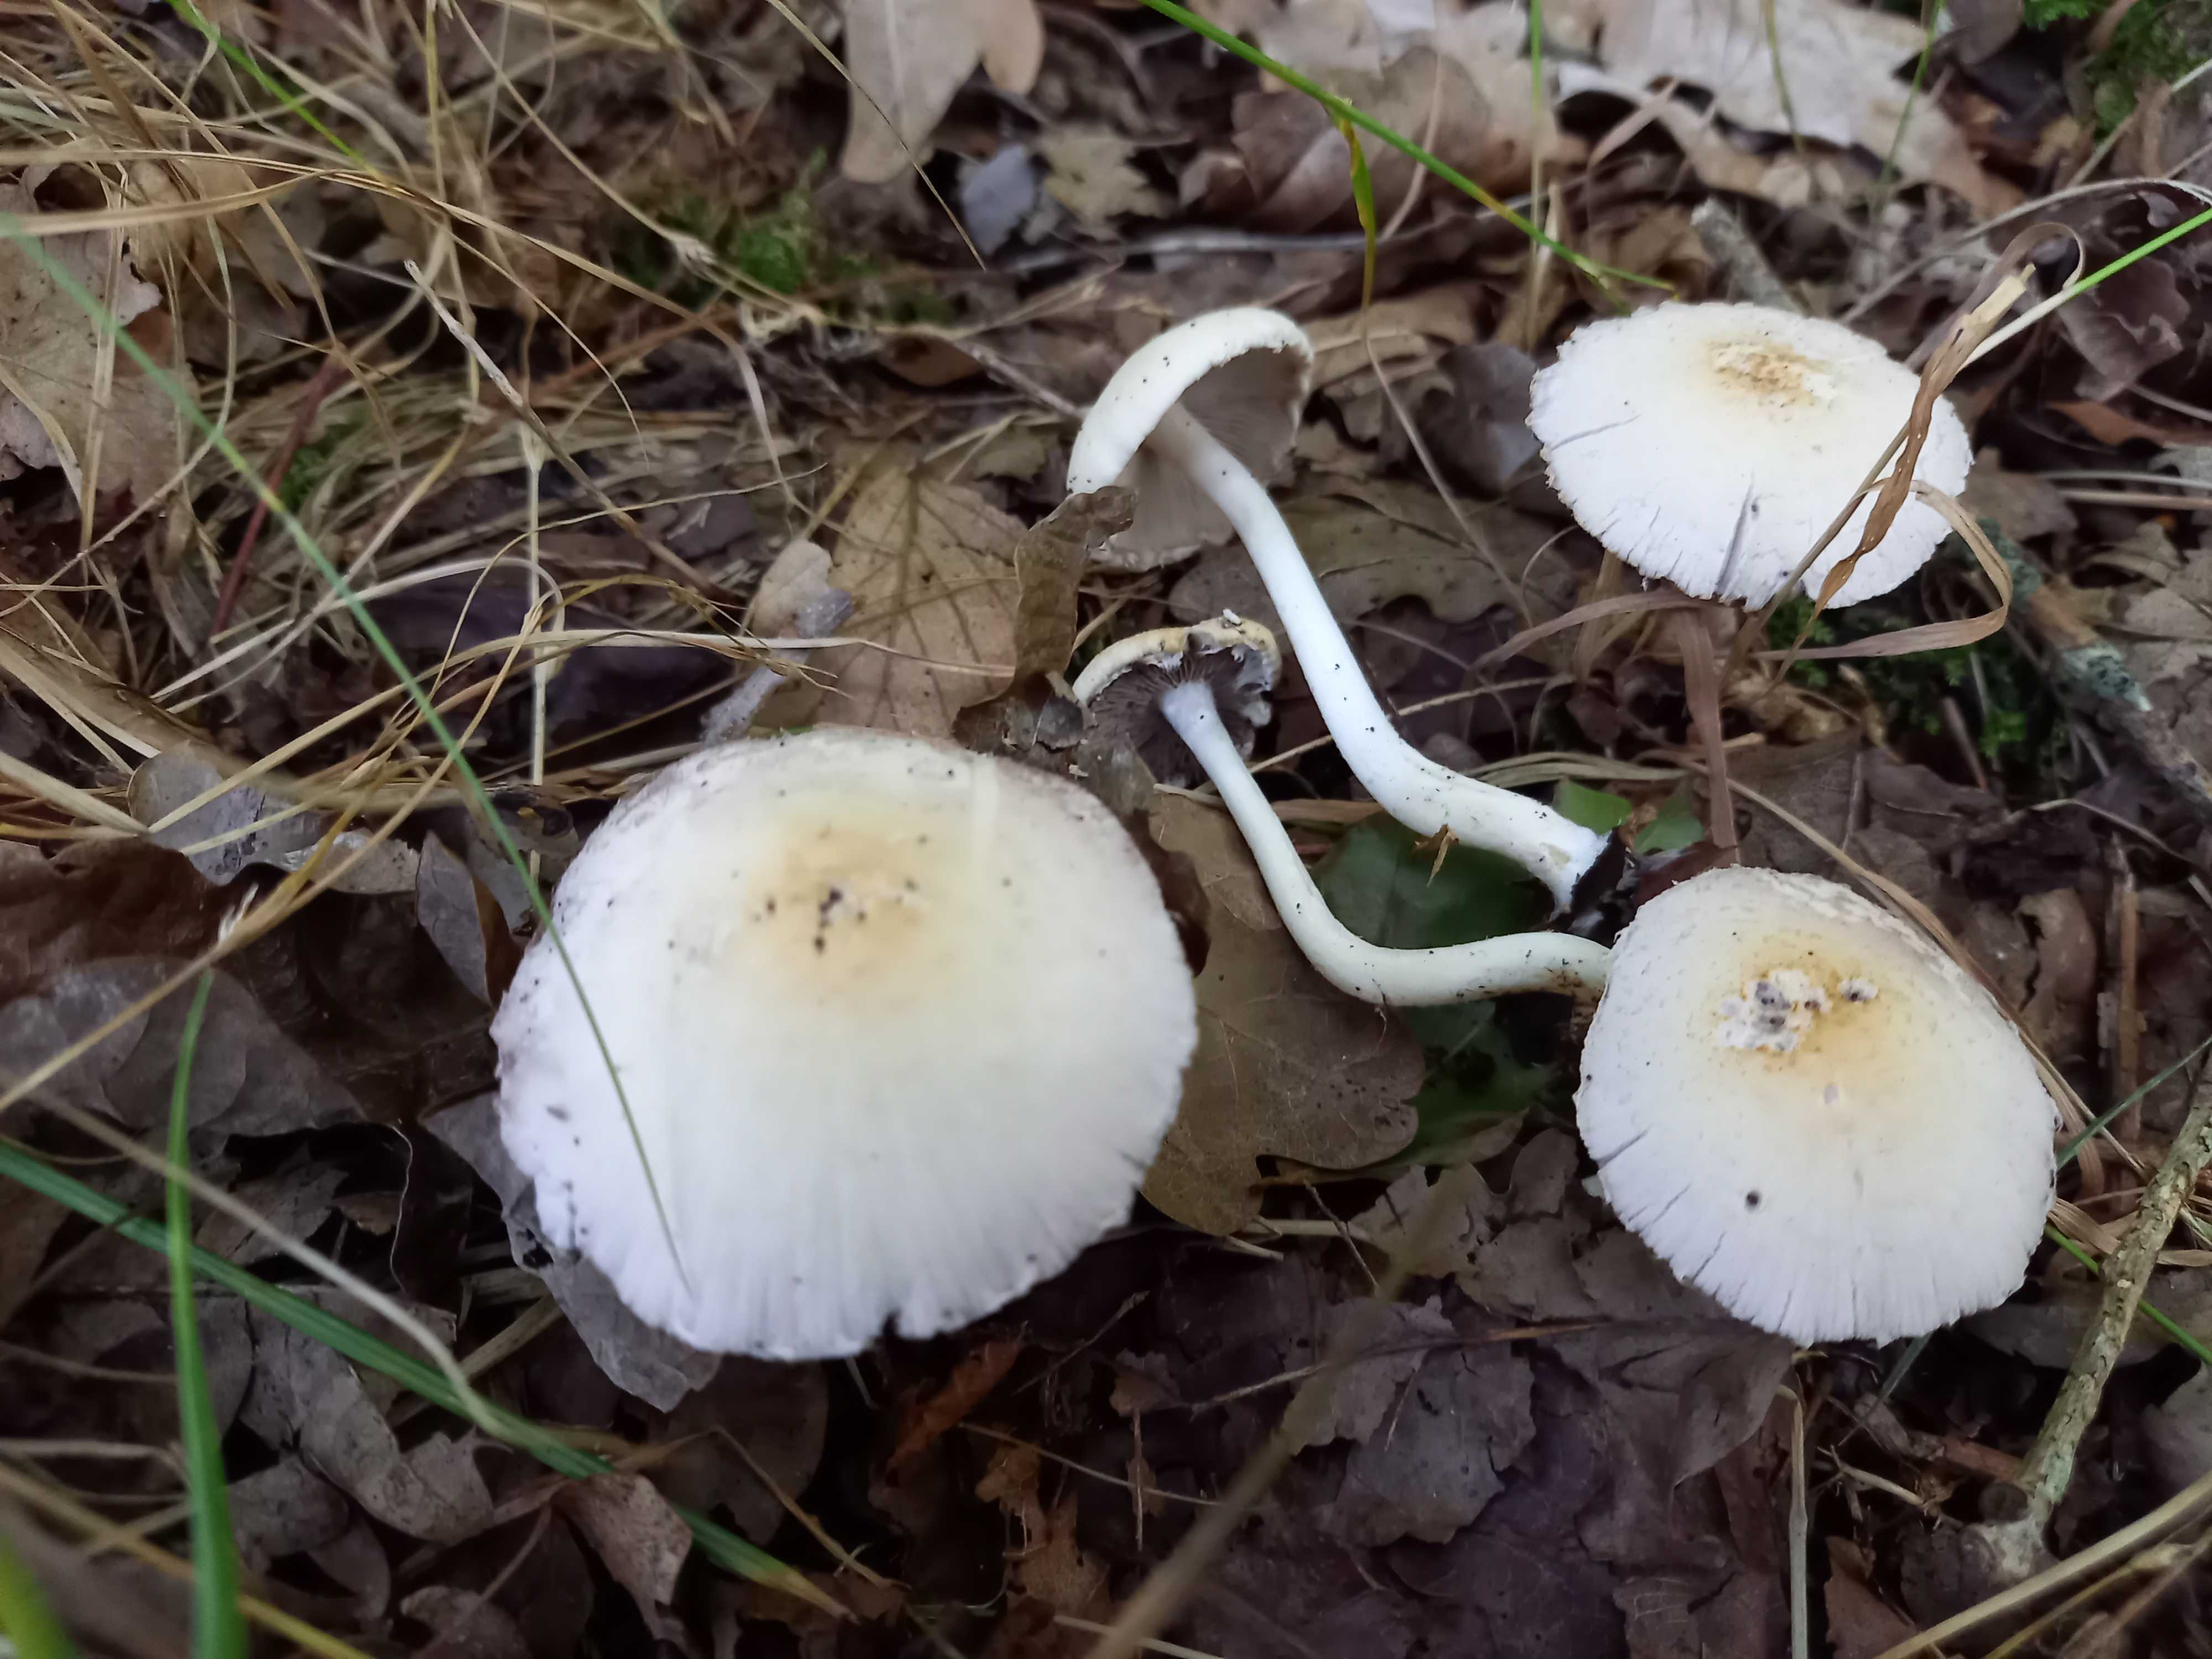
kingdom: Fungi
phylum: Basidiomycota
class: Agaricomycetes
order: Agaricales
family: Psathyrellaceae
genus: Candolleomyces
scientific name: Candolleomyces candolleanus
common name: Candolles mørkhat
